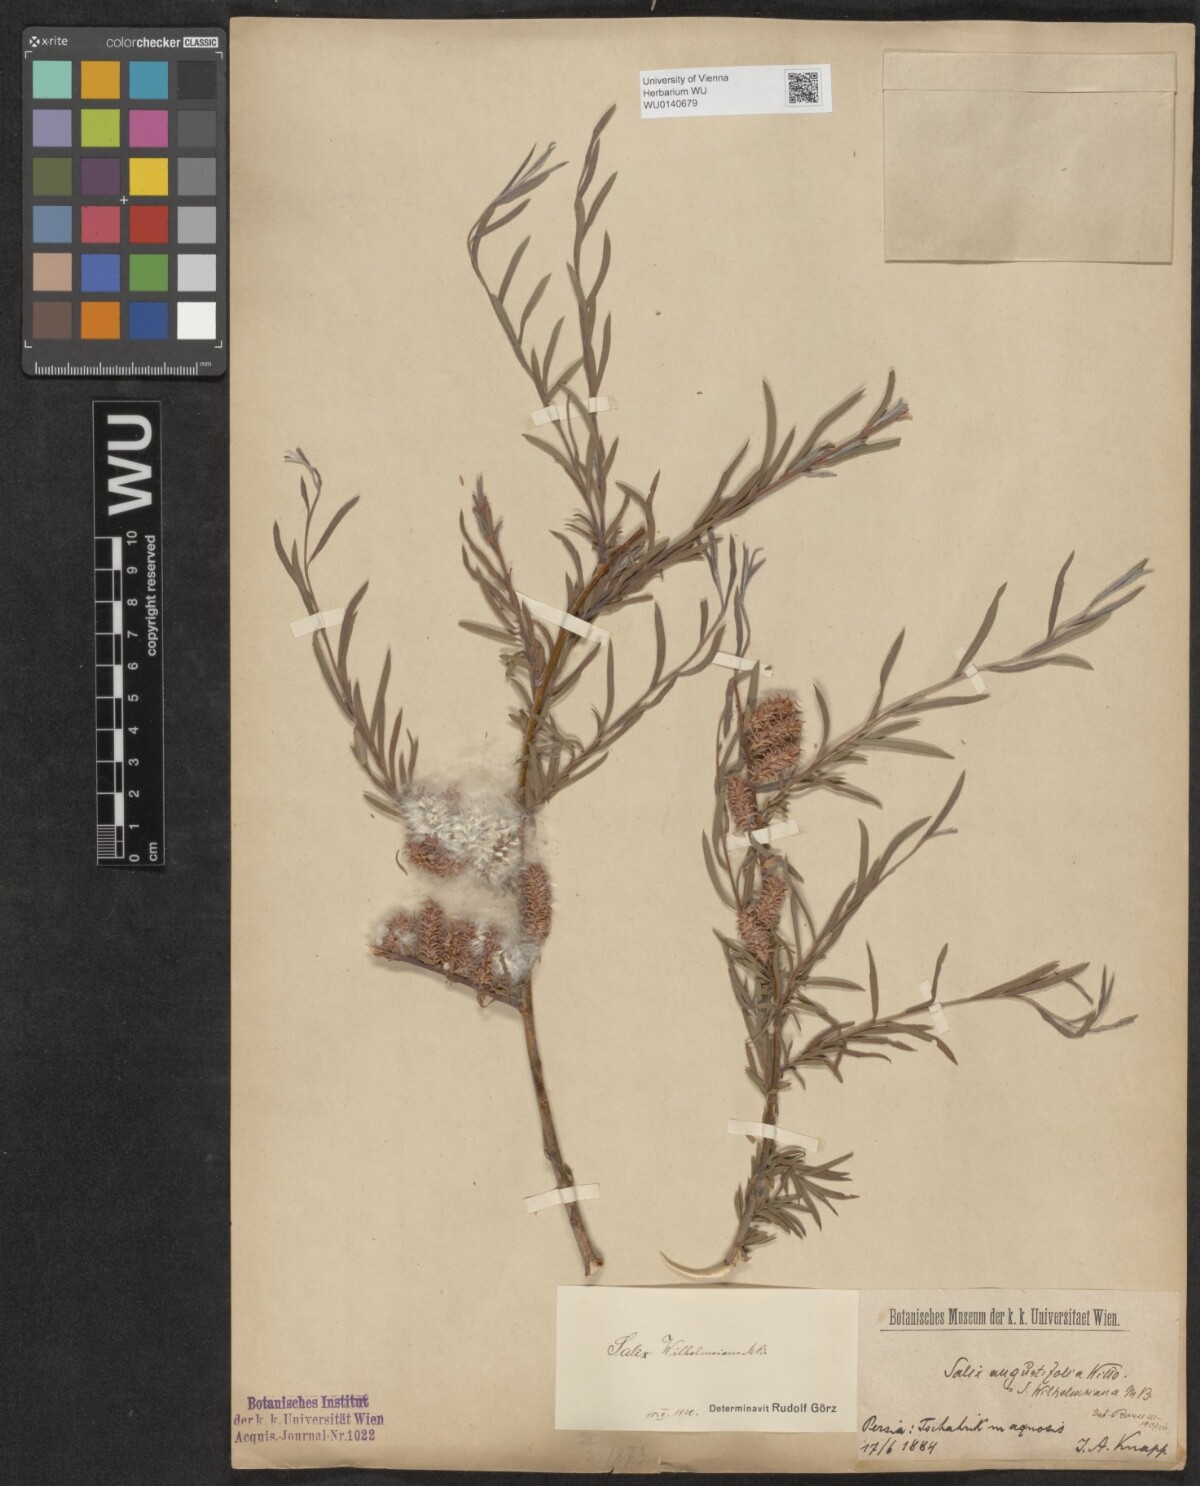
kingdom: Plantae
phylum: Tracheophyta
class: Magnoliopsida
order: Malpighiales
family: Salicaceae
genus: Salix
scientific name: Salix wilhelmsiana
